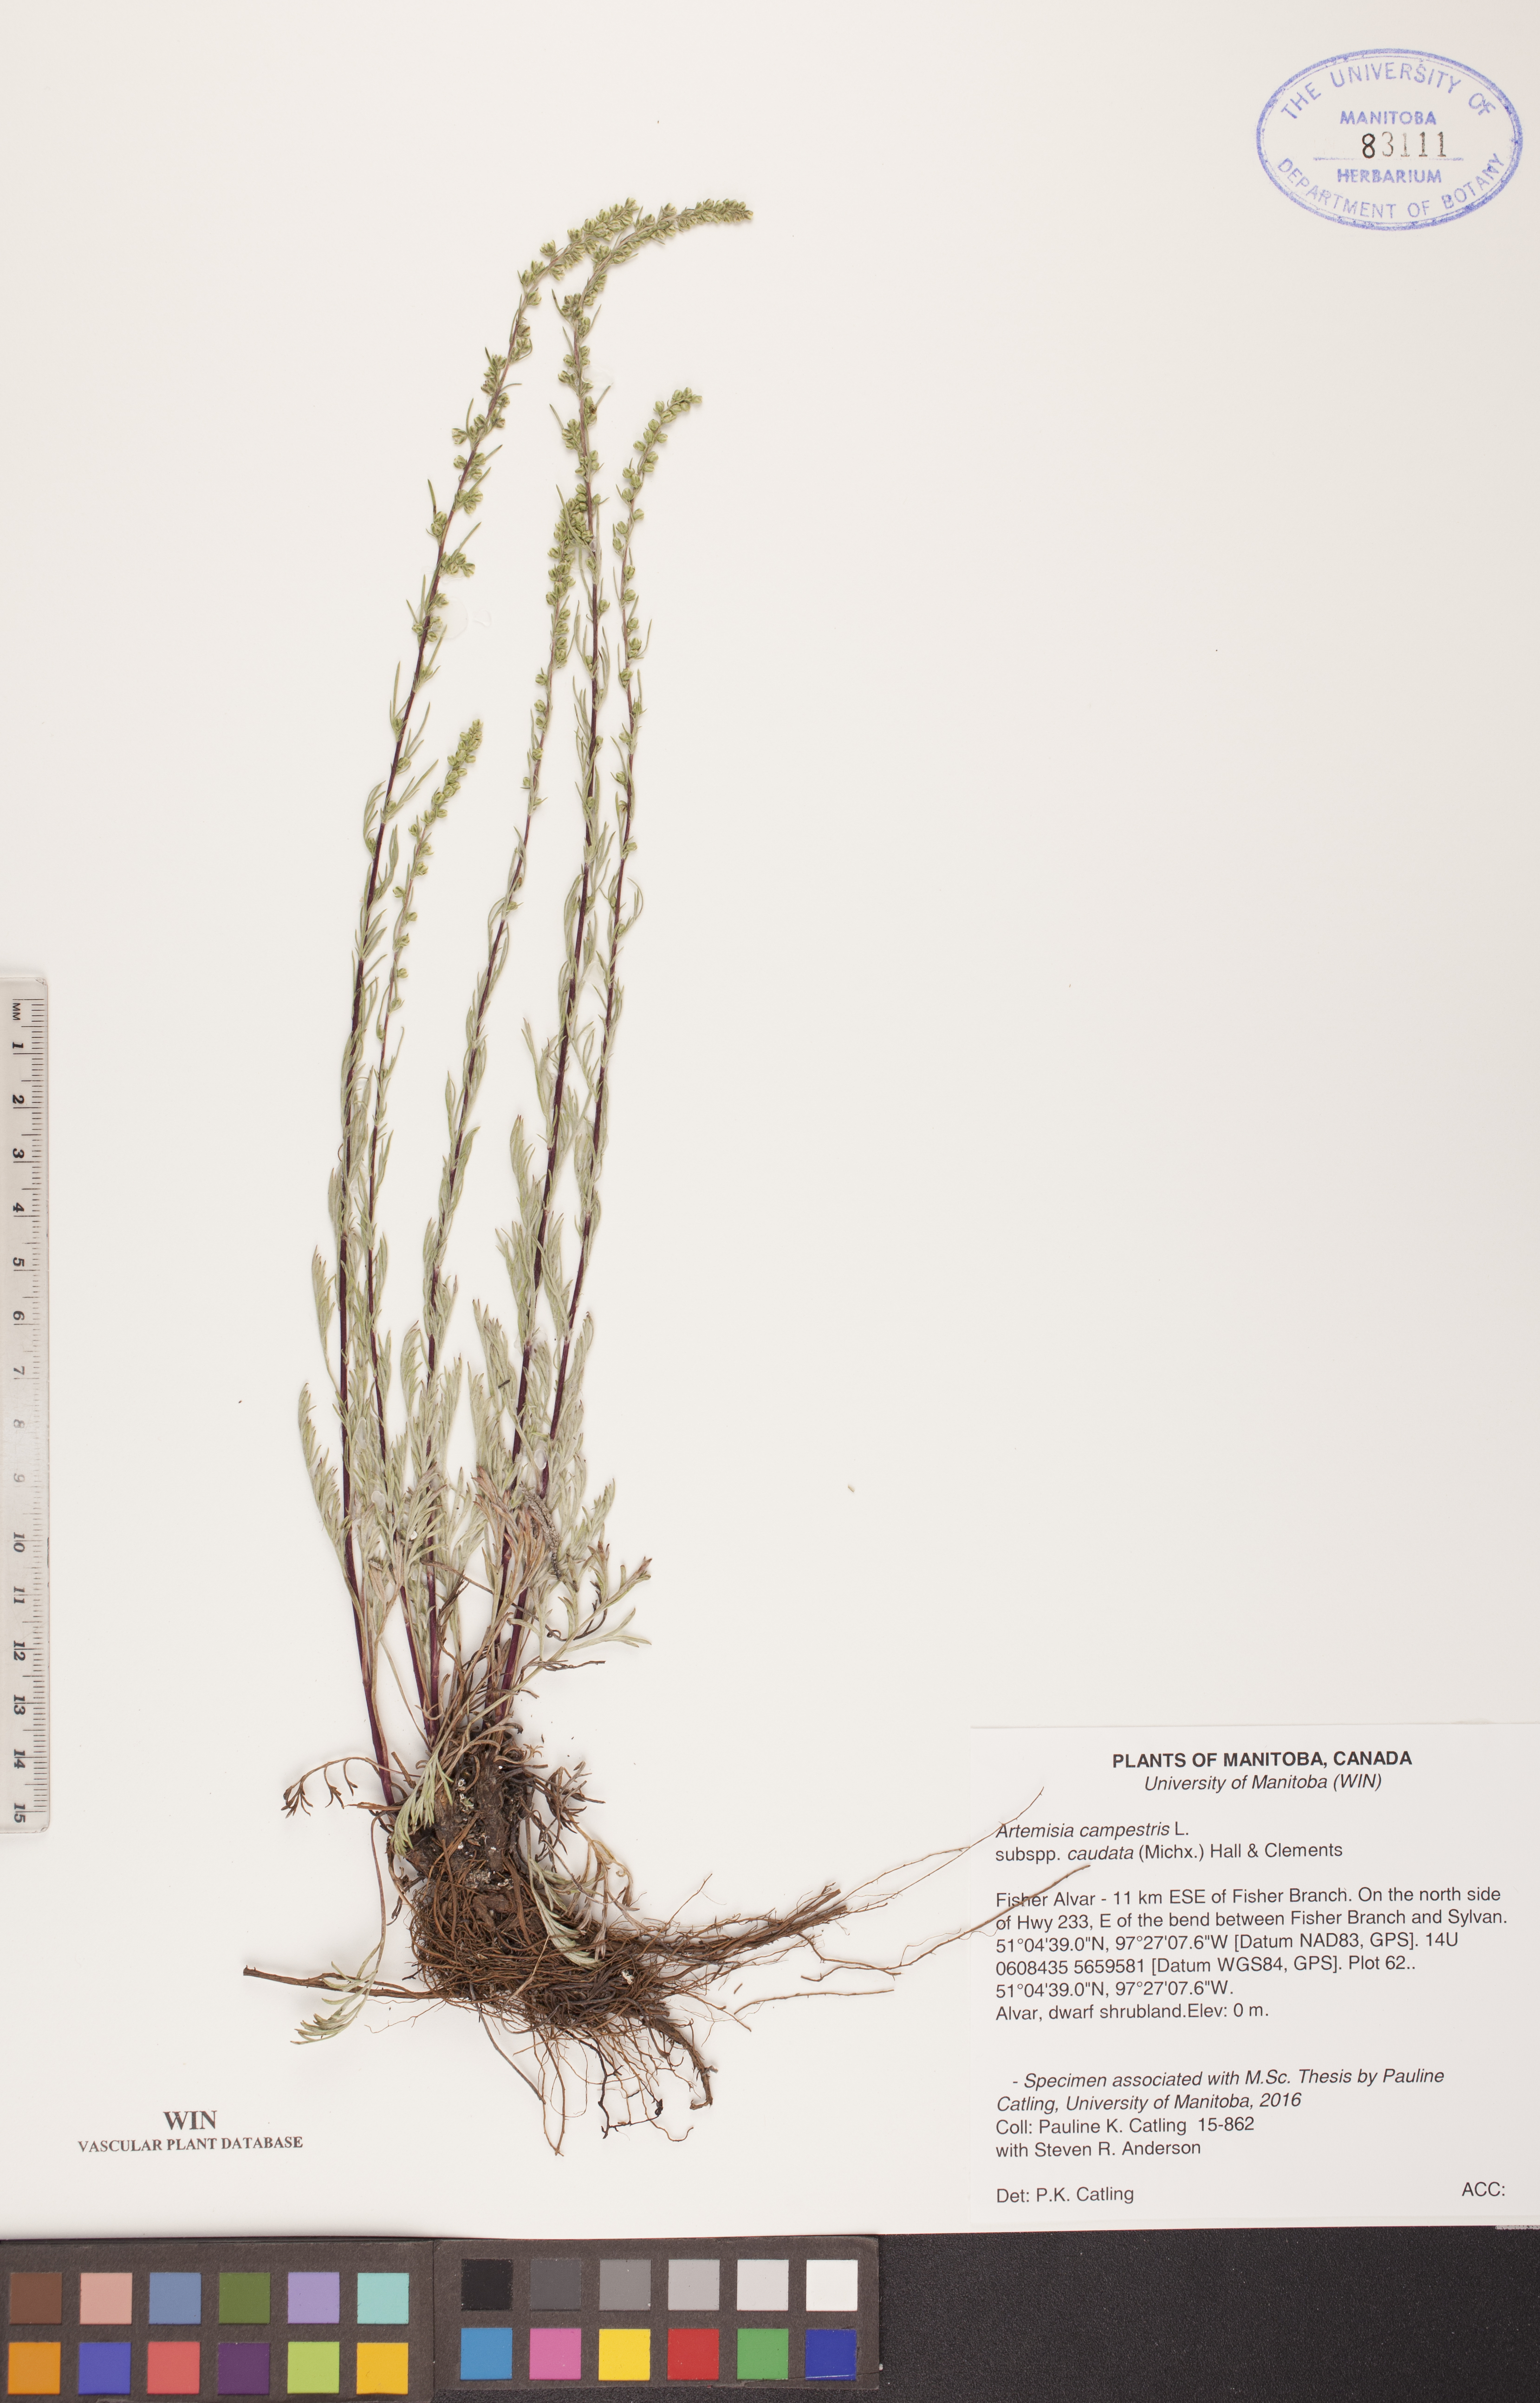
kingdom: Plantae
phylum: Tracheophyta
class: Magnoliopsida
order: Asterales
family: Asteraceae
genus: Artemisia
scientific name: Artemisia campestris
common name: Field wormwood
